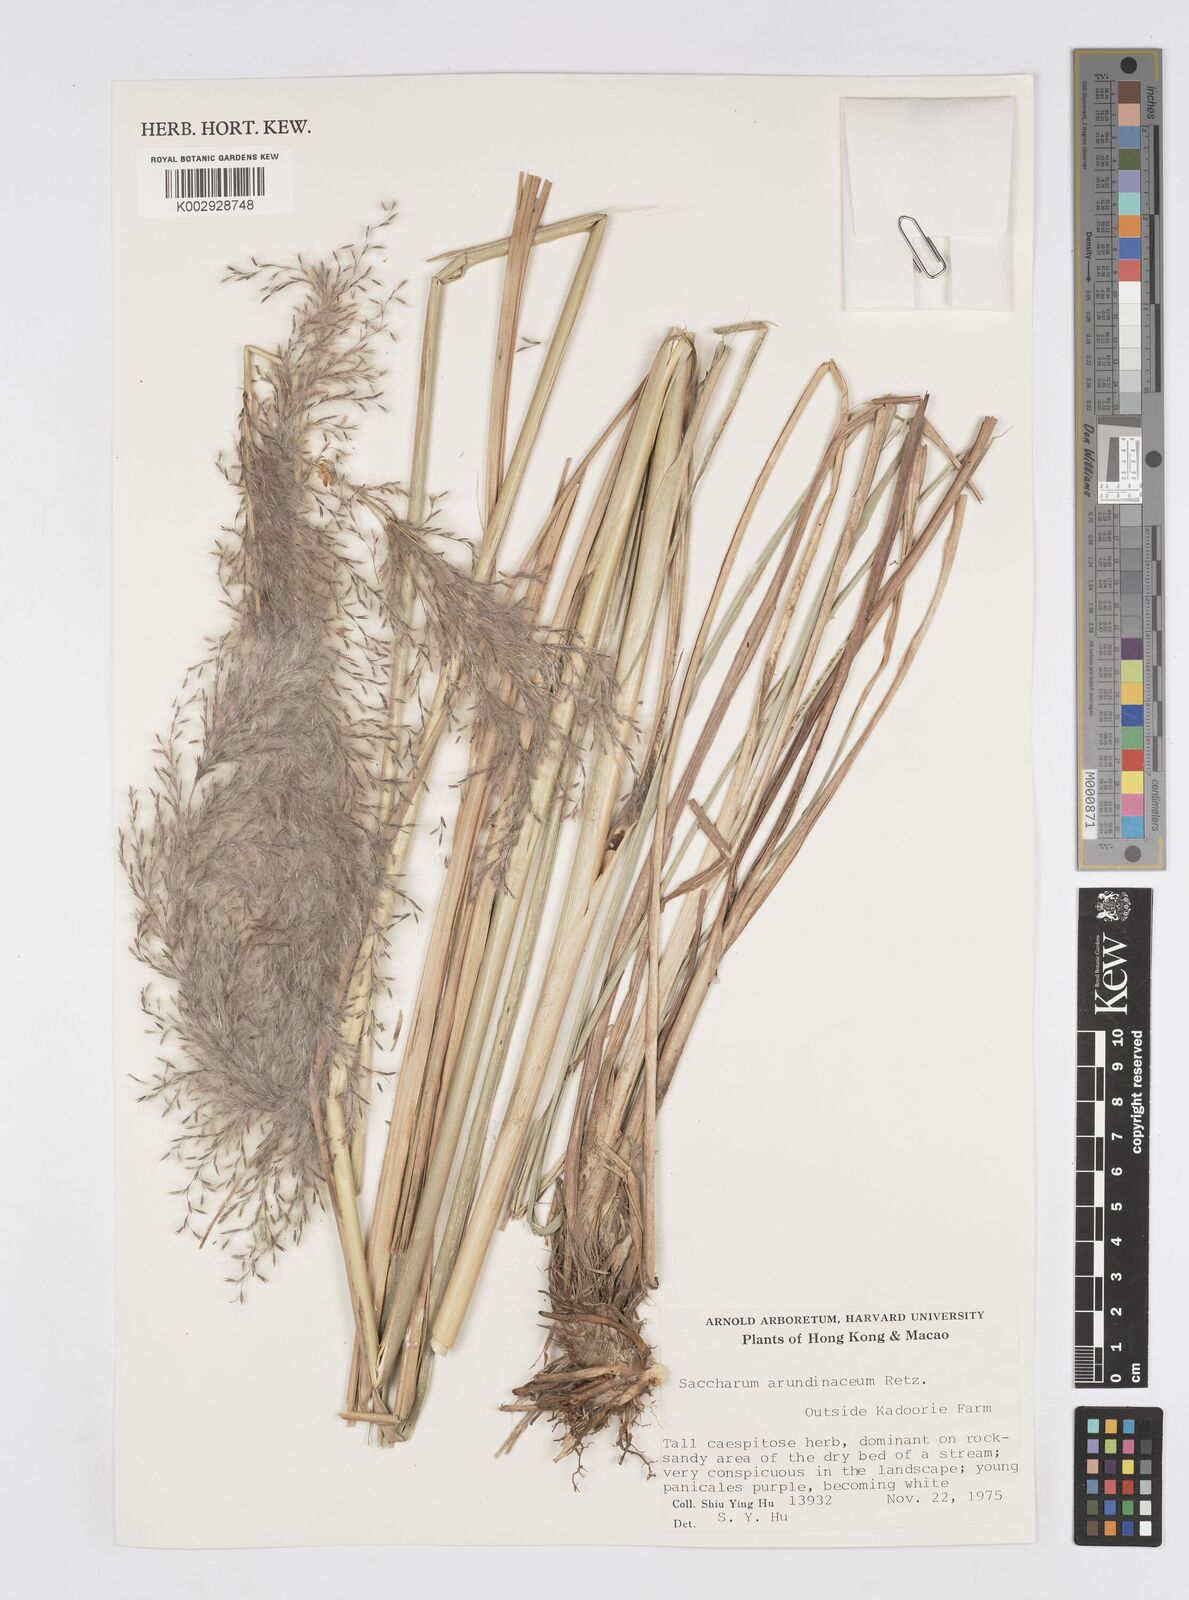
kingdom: Plantae
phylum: Tracheophyta
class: Liliopsida
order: Poales
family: Poaceae
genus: Tripidium
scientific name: Tripidium arundinaceum
